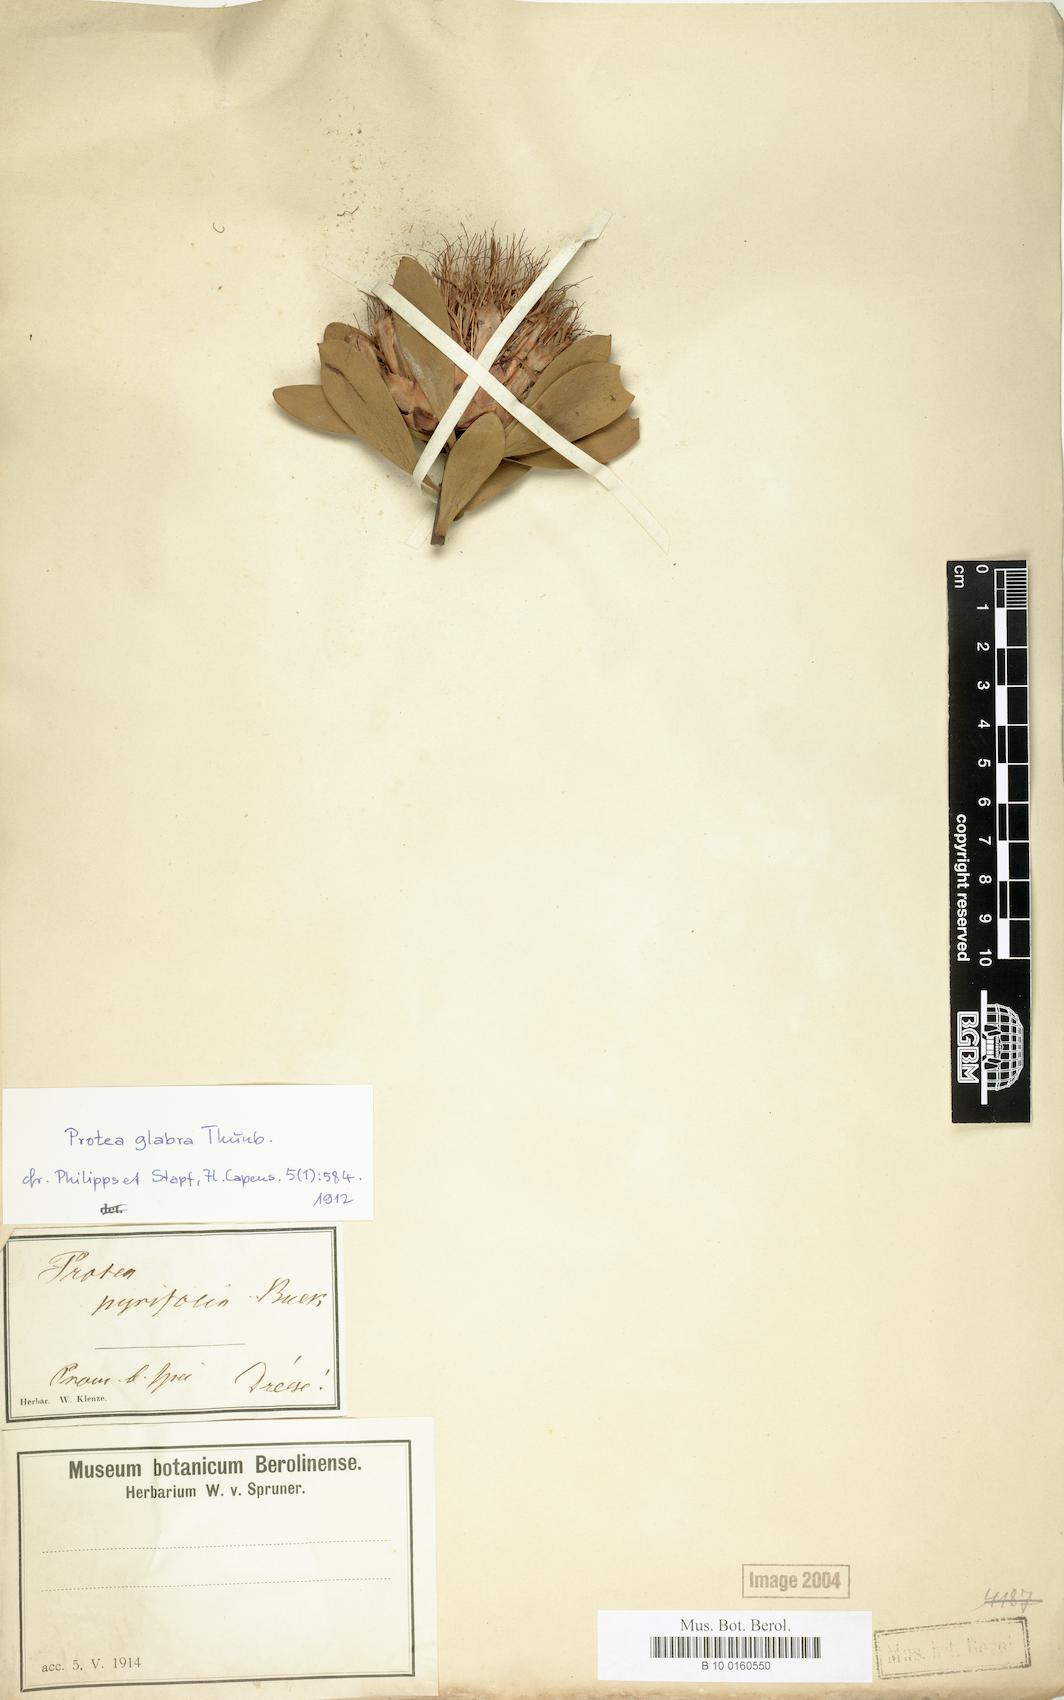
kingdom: Plantae
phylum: Tracheophyta
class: Magnoliopsida
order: Proteales
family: Proteaceae
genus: Protea
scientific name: Protea glabra
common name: Chestnut sugarbush
